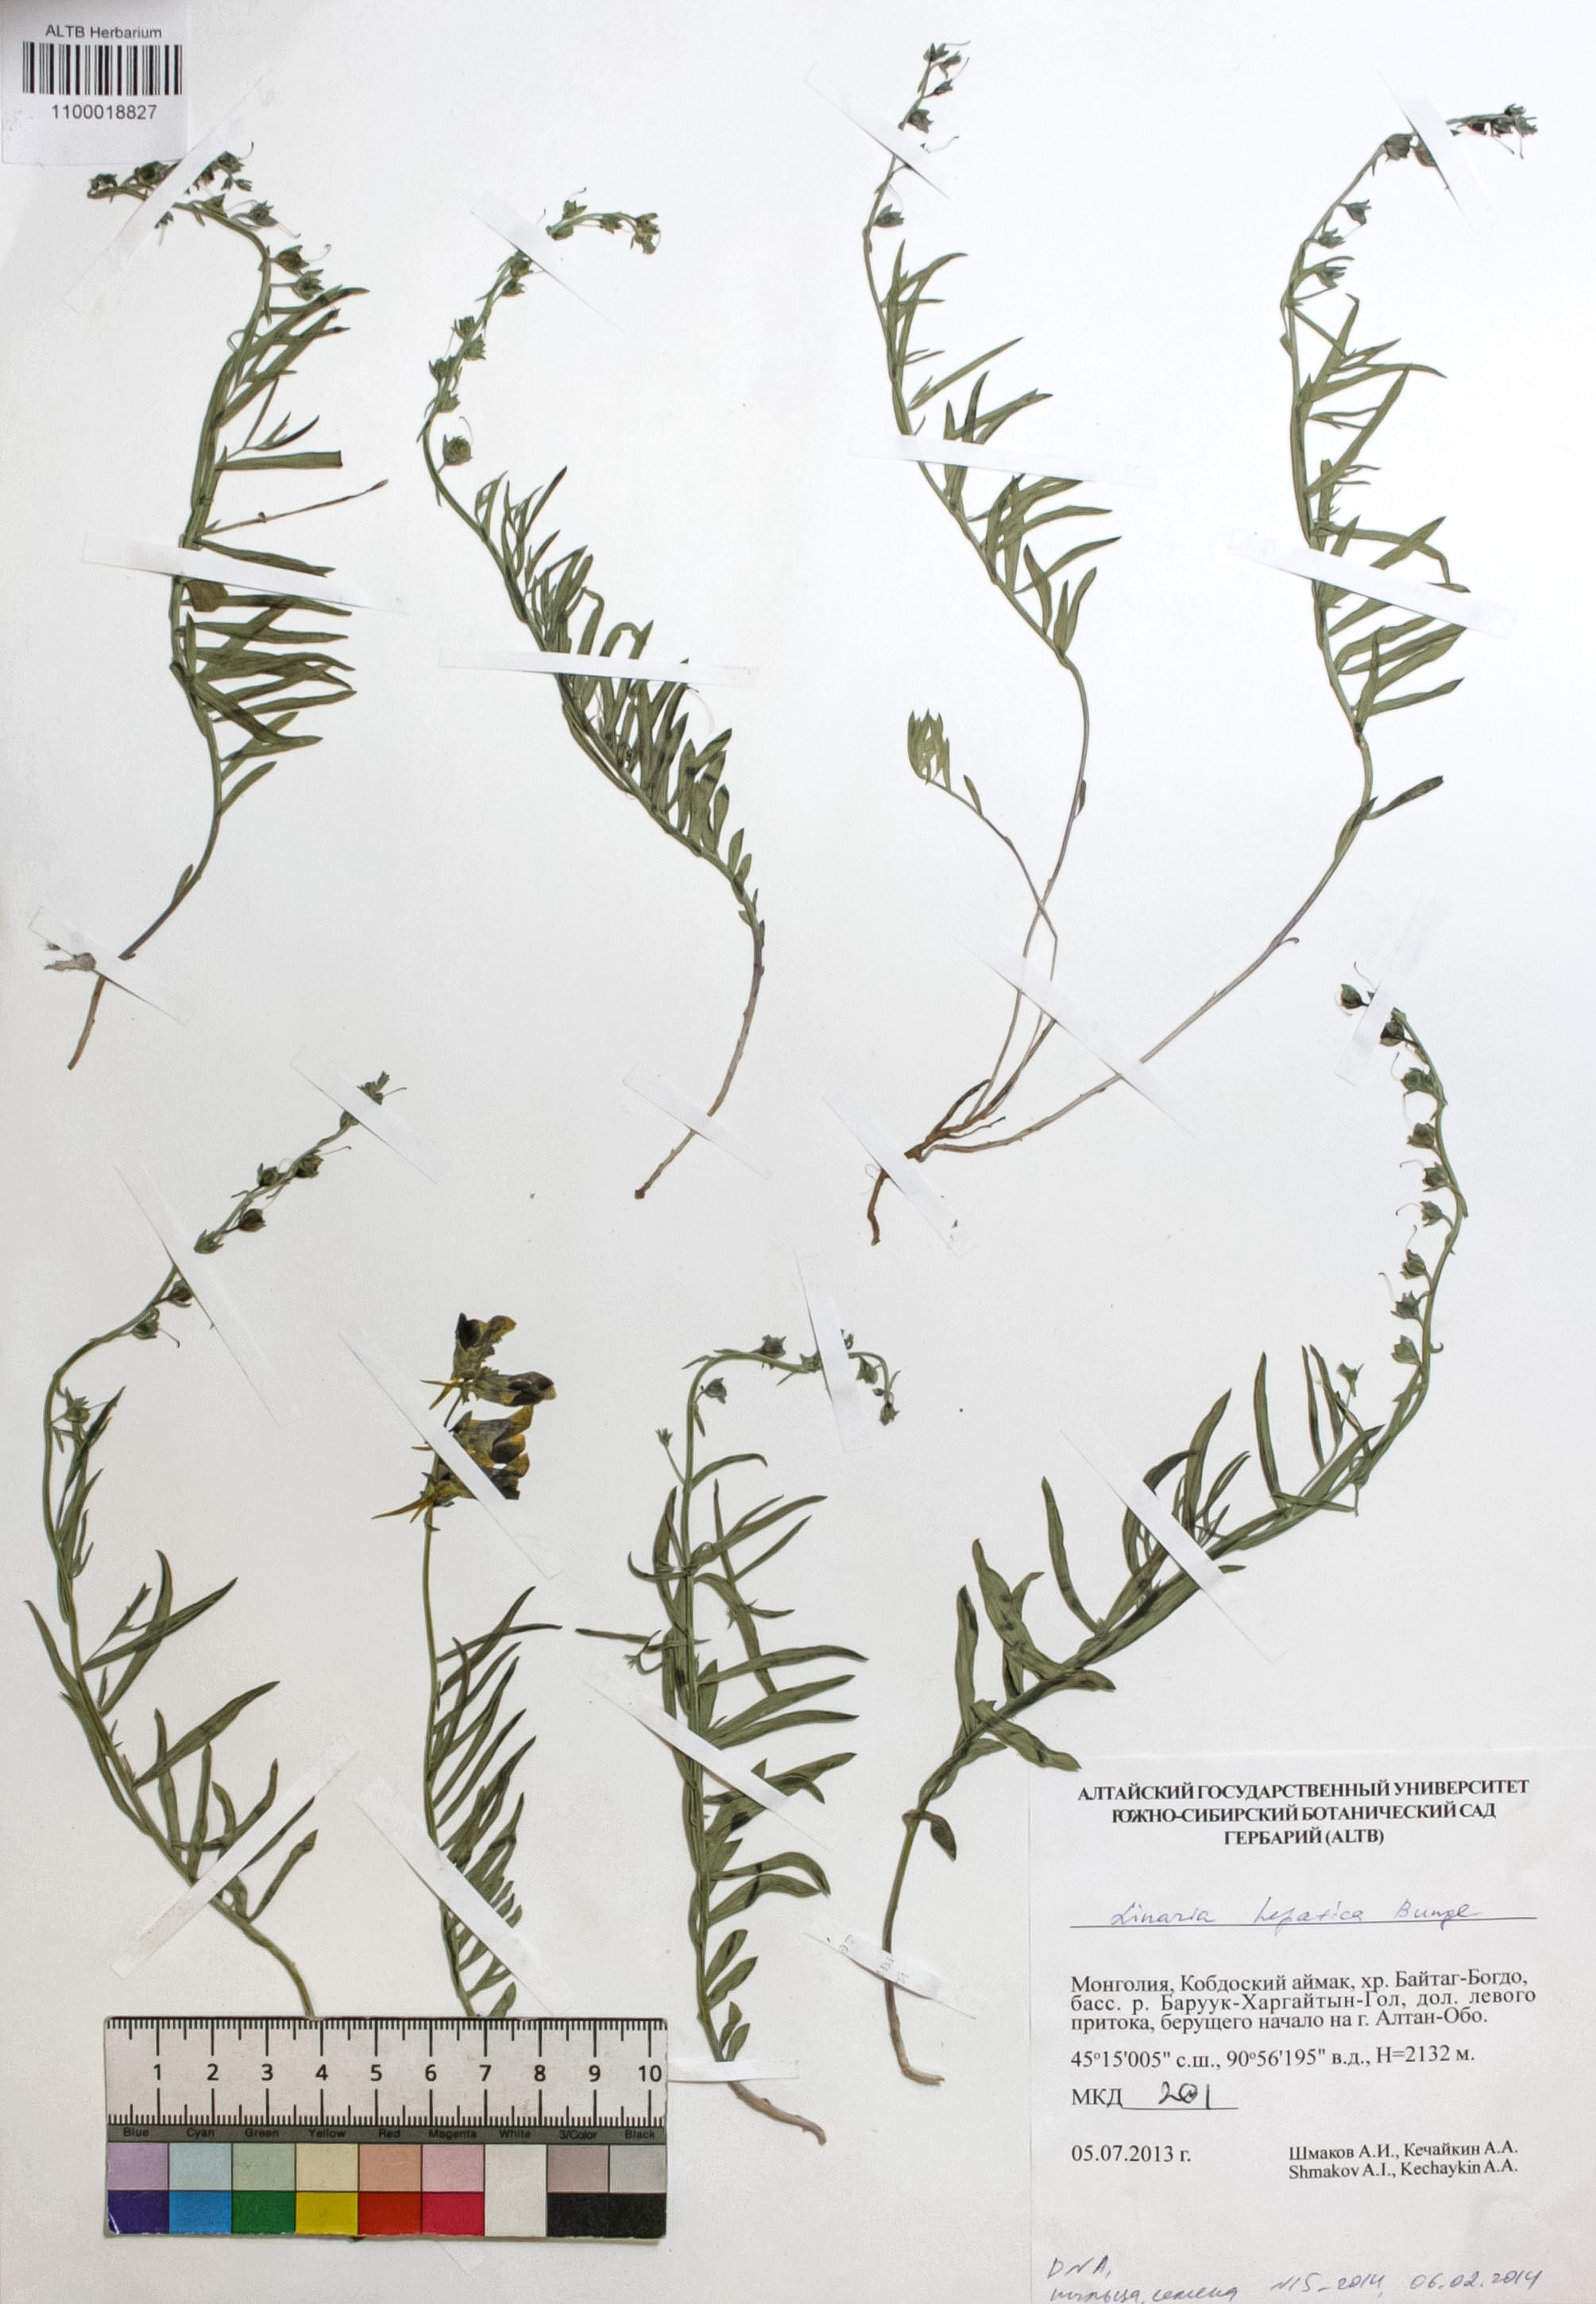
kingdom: Plantae
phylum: Tracheophyta
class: Magnoliopsida
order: Lamiales
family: Plantaginaceae
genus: Linaria
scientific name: Linaria hepatica
